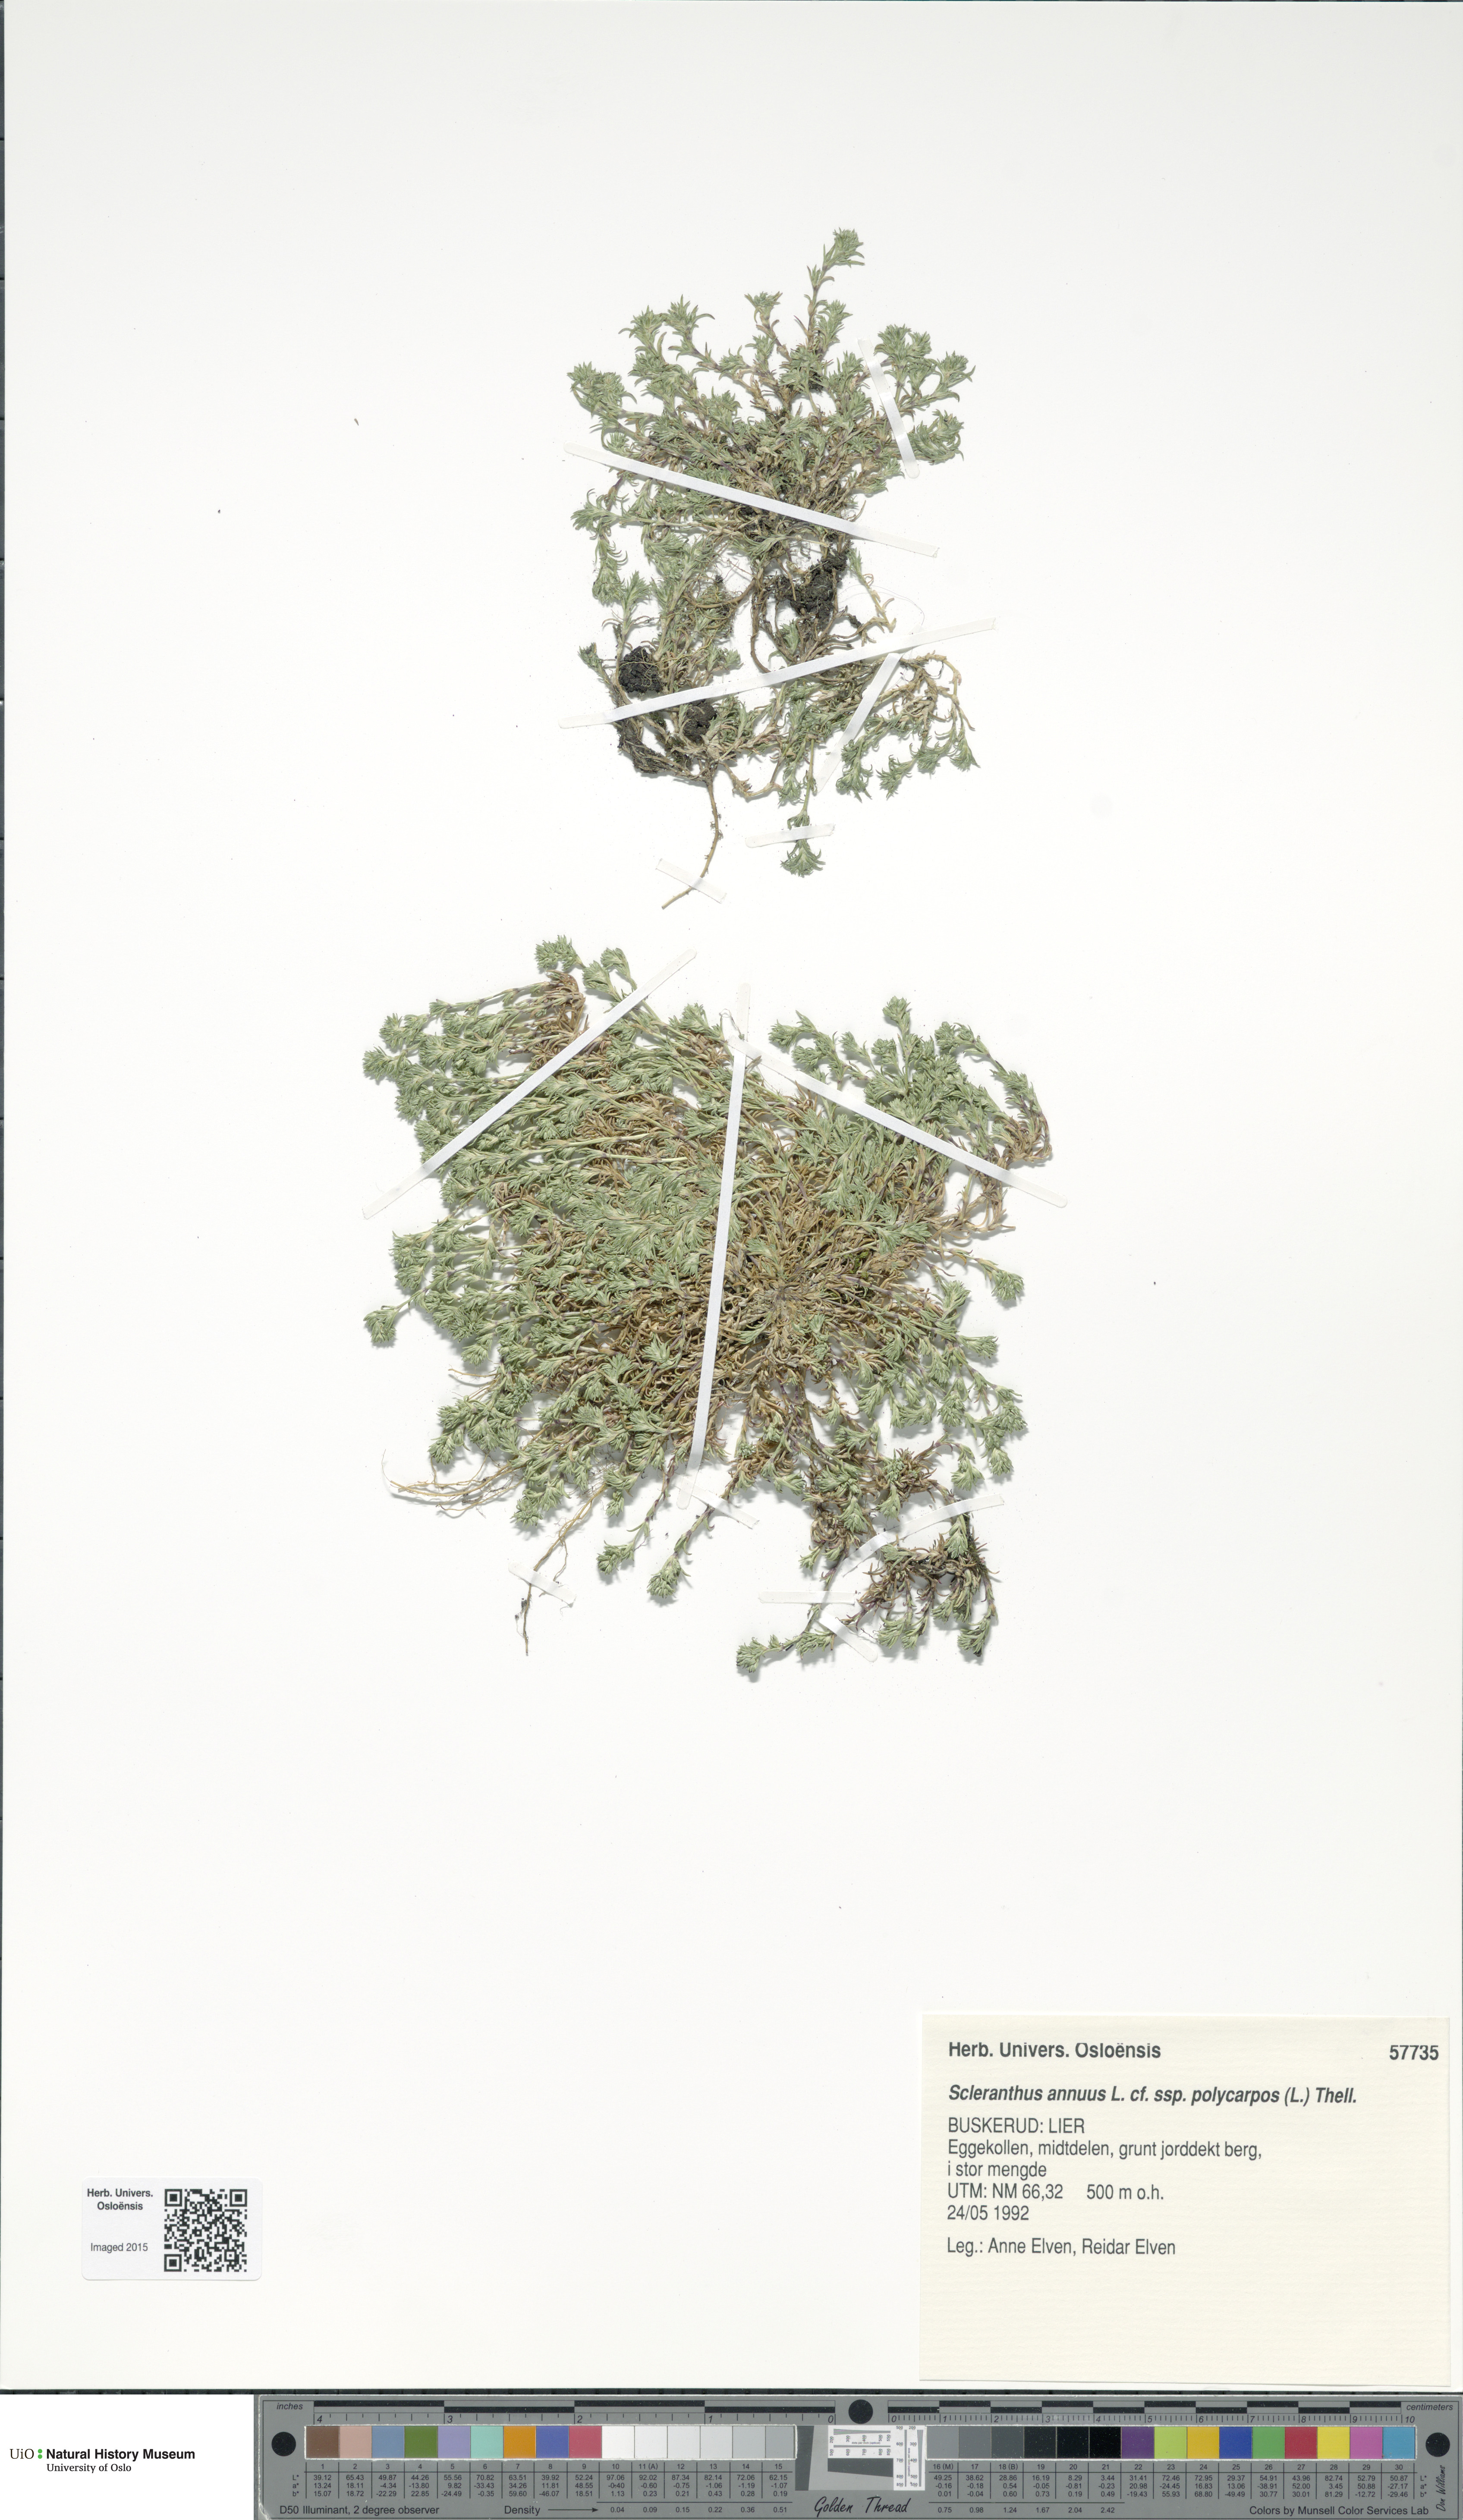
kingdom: Plantae
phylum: Tracheophyta
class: Magnoliopsida
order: Caryophyllales
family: Caryophyllaceae
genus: Scleranthus
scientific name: Scleranthus annuus
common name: Annual knawel
